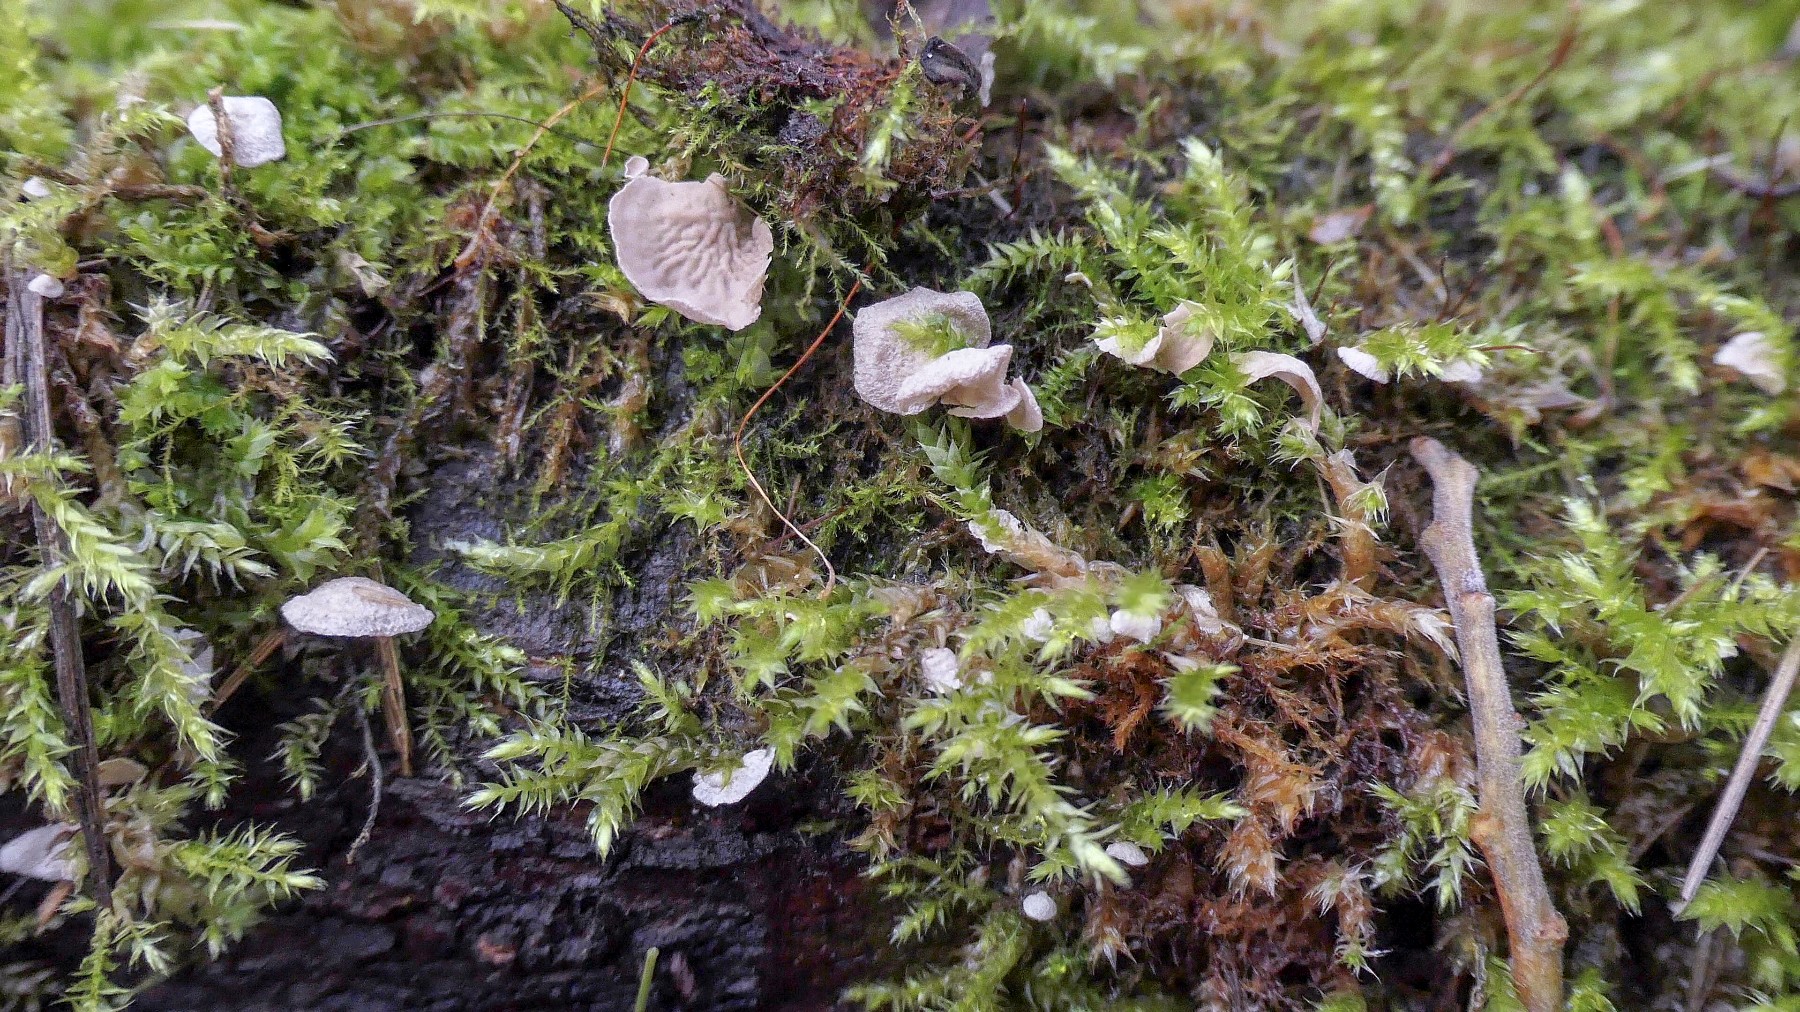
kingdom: Fungi
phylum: Basidiomycota
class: Agaricomycetes
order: Agaricales
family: Hygrophoraceae
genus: Arrhenia
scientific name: Arrhenia retiruga
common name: lille fontænehat
